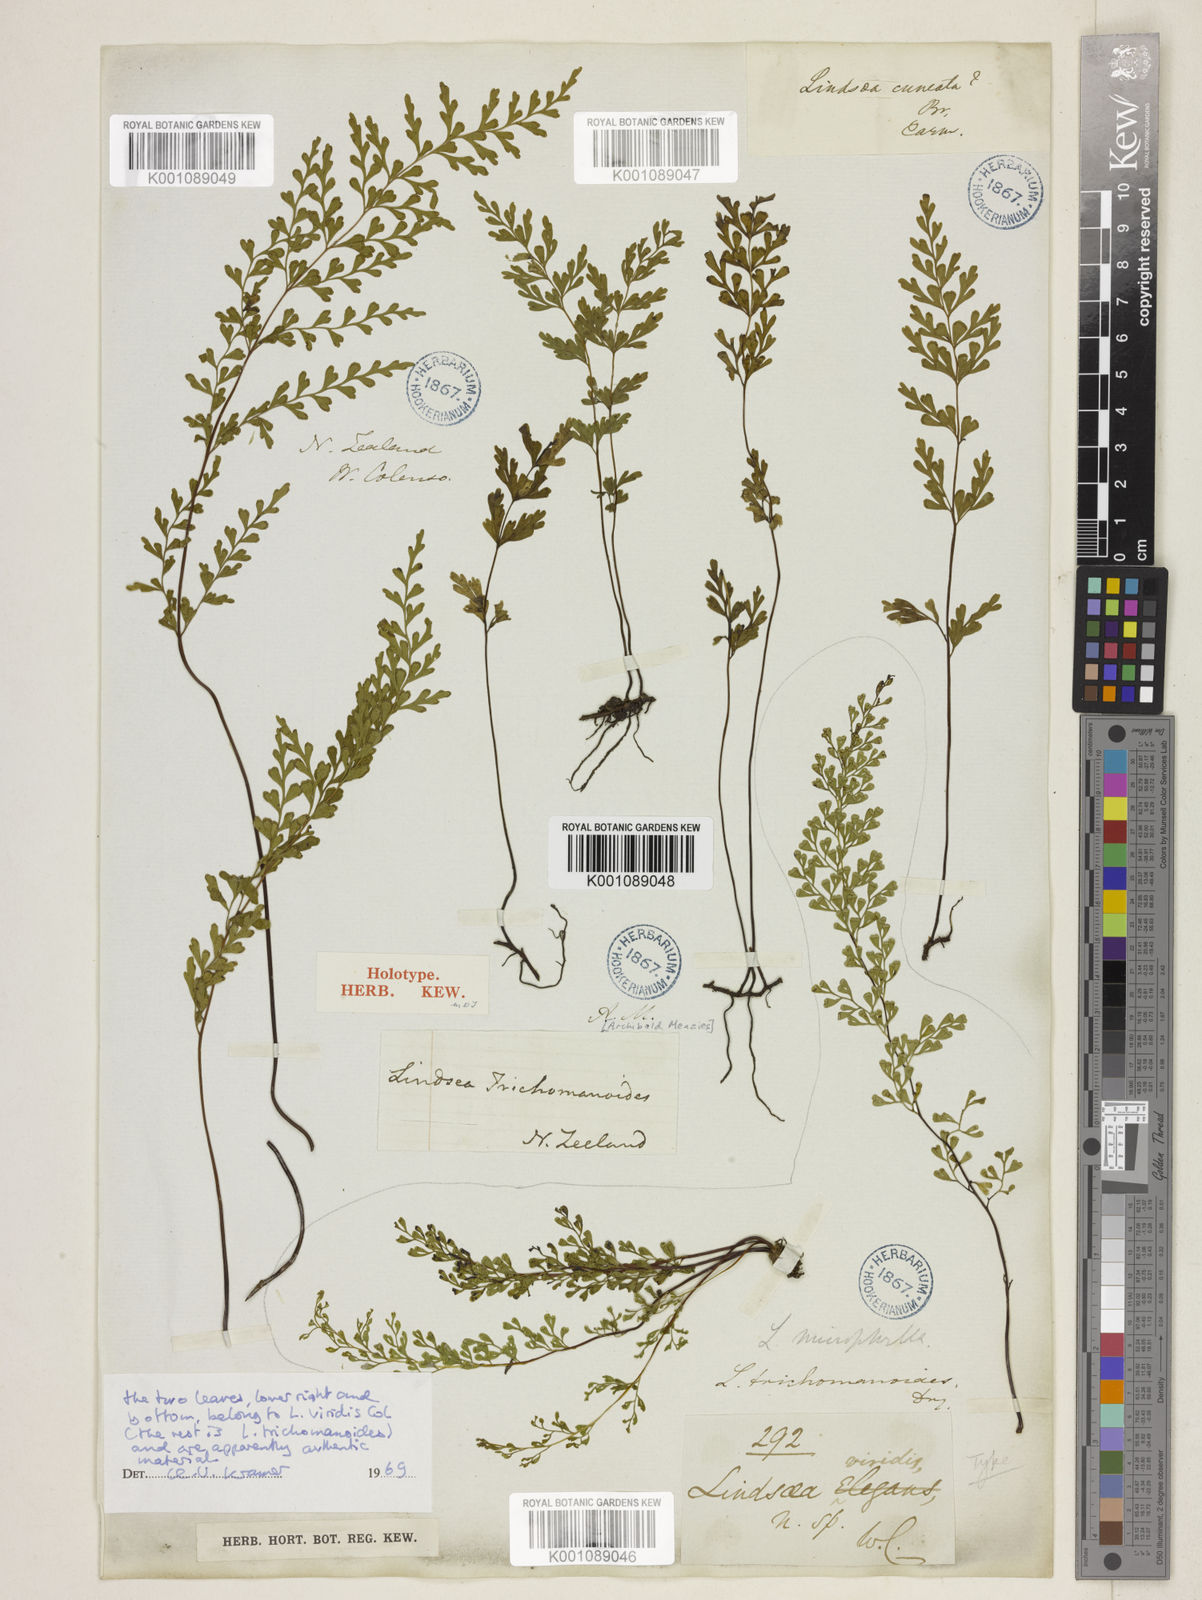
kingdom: Plantae
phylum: Tracheophyta
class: Polypodiopsida
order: Polypodiales
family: Lindsaeaceae
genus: Odontosoria
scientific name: Odontosoria viridis
